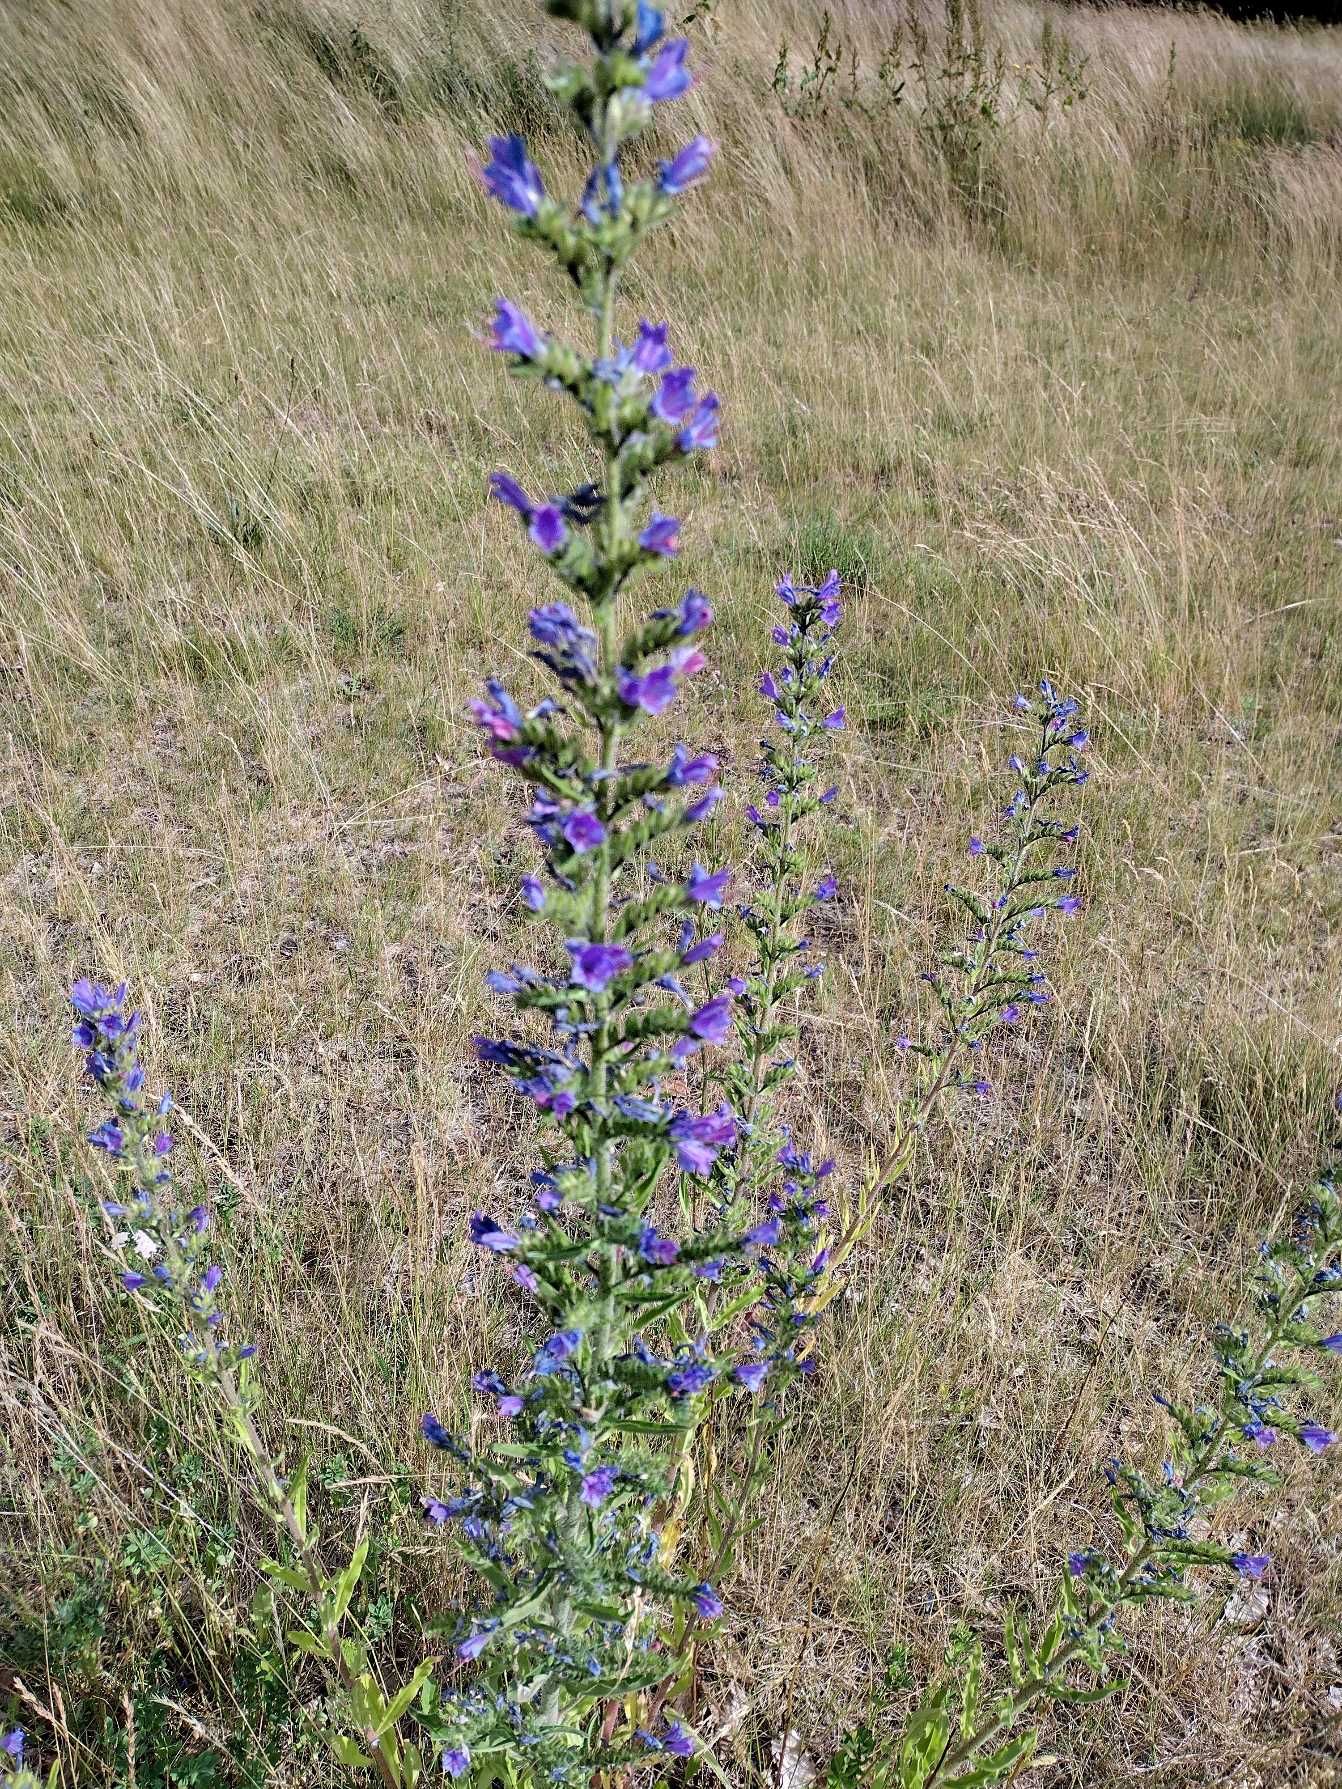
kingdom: Plantae
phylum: Tracheophyta
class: Magnoliopsida
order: Boraginales
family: Boraginaceae
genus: Echium
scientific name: Echium vulgare
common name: Slangehoved
